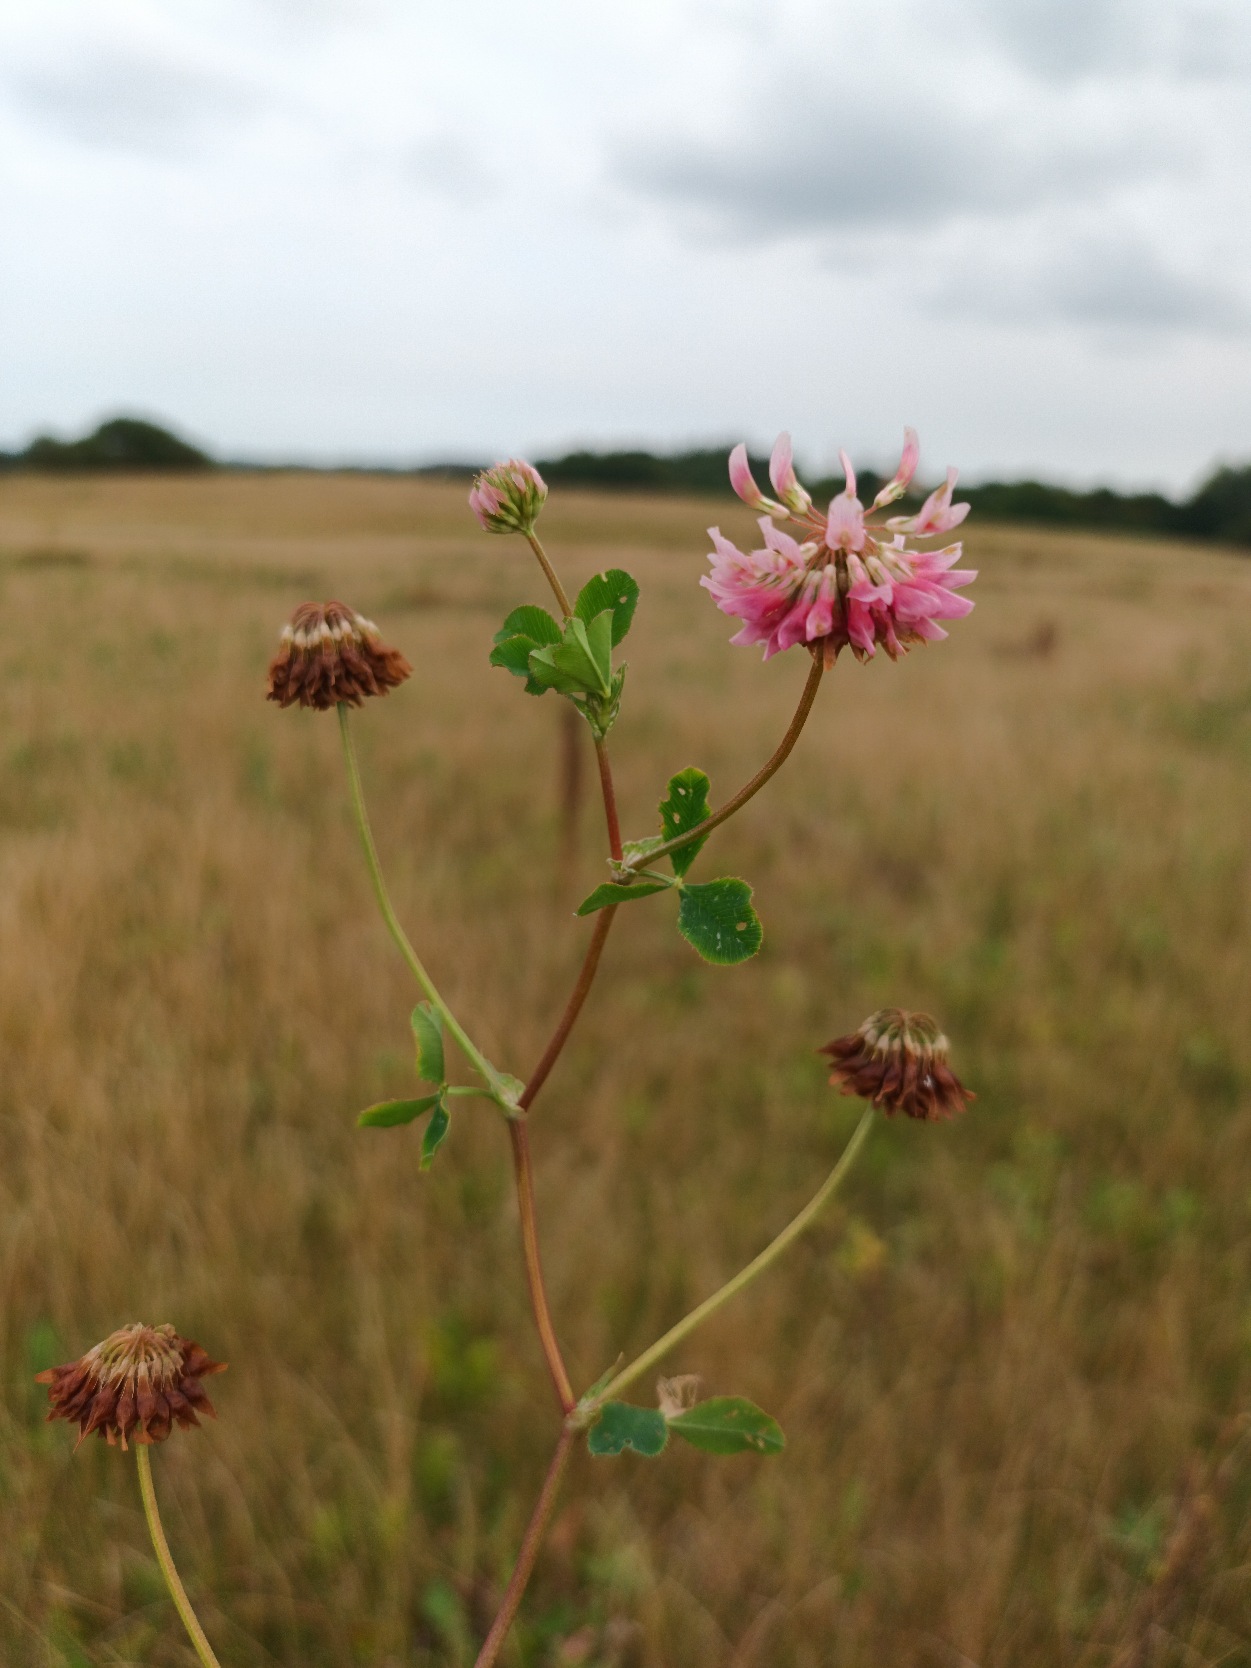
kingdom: Plantae
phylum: Tracheophyta
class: Magnoliopsida
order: Fabales
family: Fabaceae
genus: Trifolium
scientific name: Trifolium hybridum
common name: Alsike-kløver
